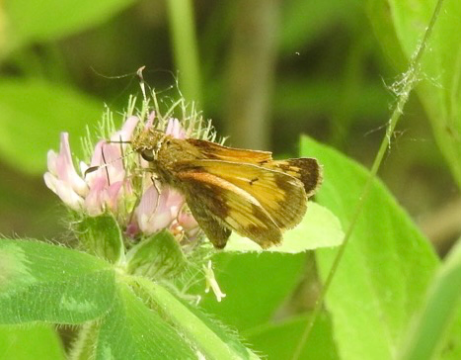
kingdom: Animalia
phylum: Arthropoda
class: Insecta
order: Lepidoptera
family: Hesperiidae
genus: Lon
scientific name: Lon hobomok
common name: Hobomok Skipper
